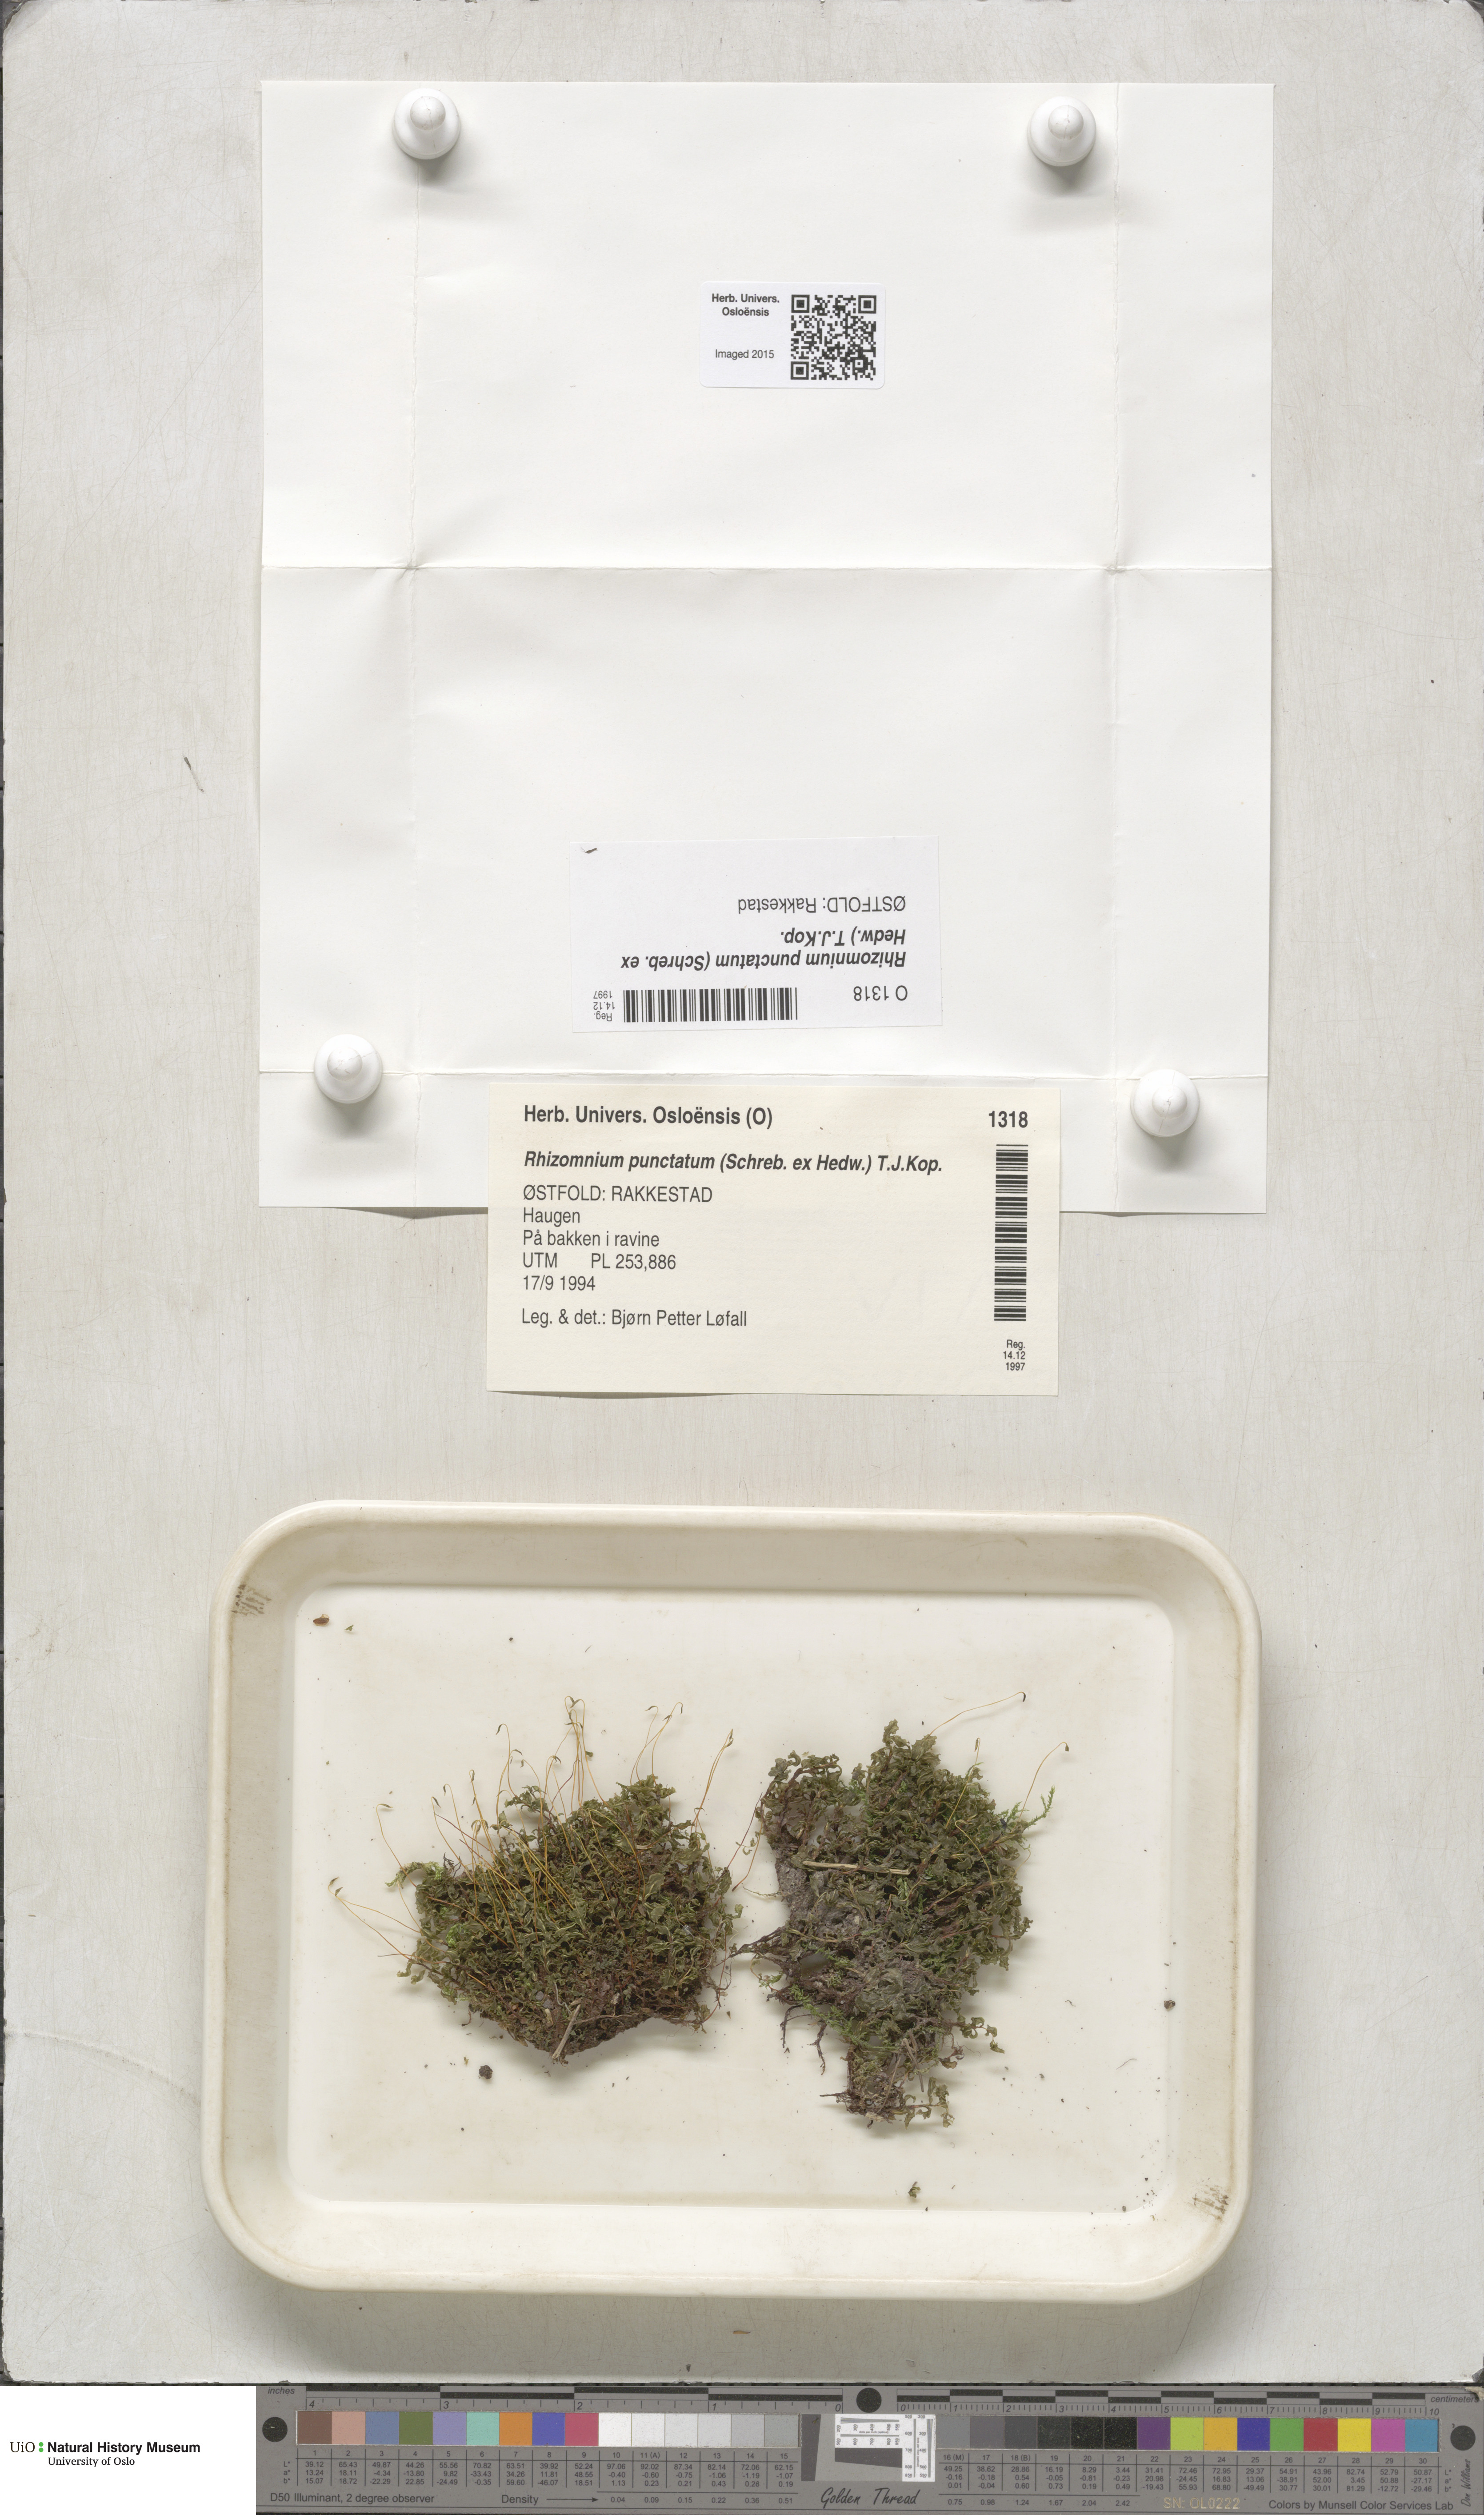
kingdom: Plantae
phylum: Bryophyta
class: Bryopsida
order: Bryales
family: Mniaceae
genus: Rhizomnium
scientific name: Rhizomnium punctatum
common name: Dotted leafy moss
